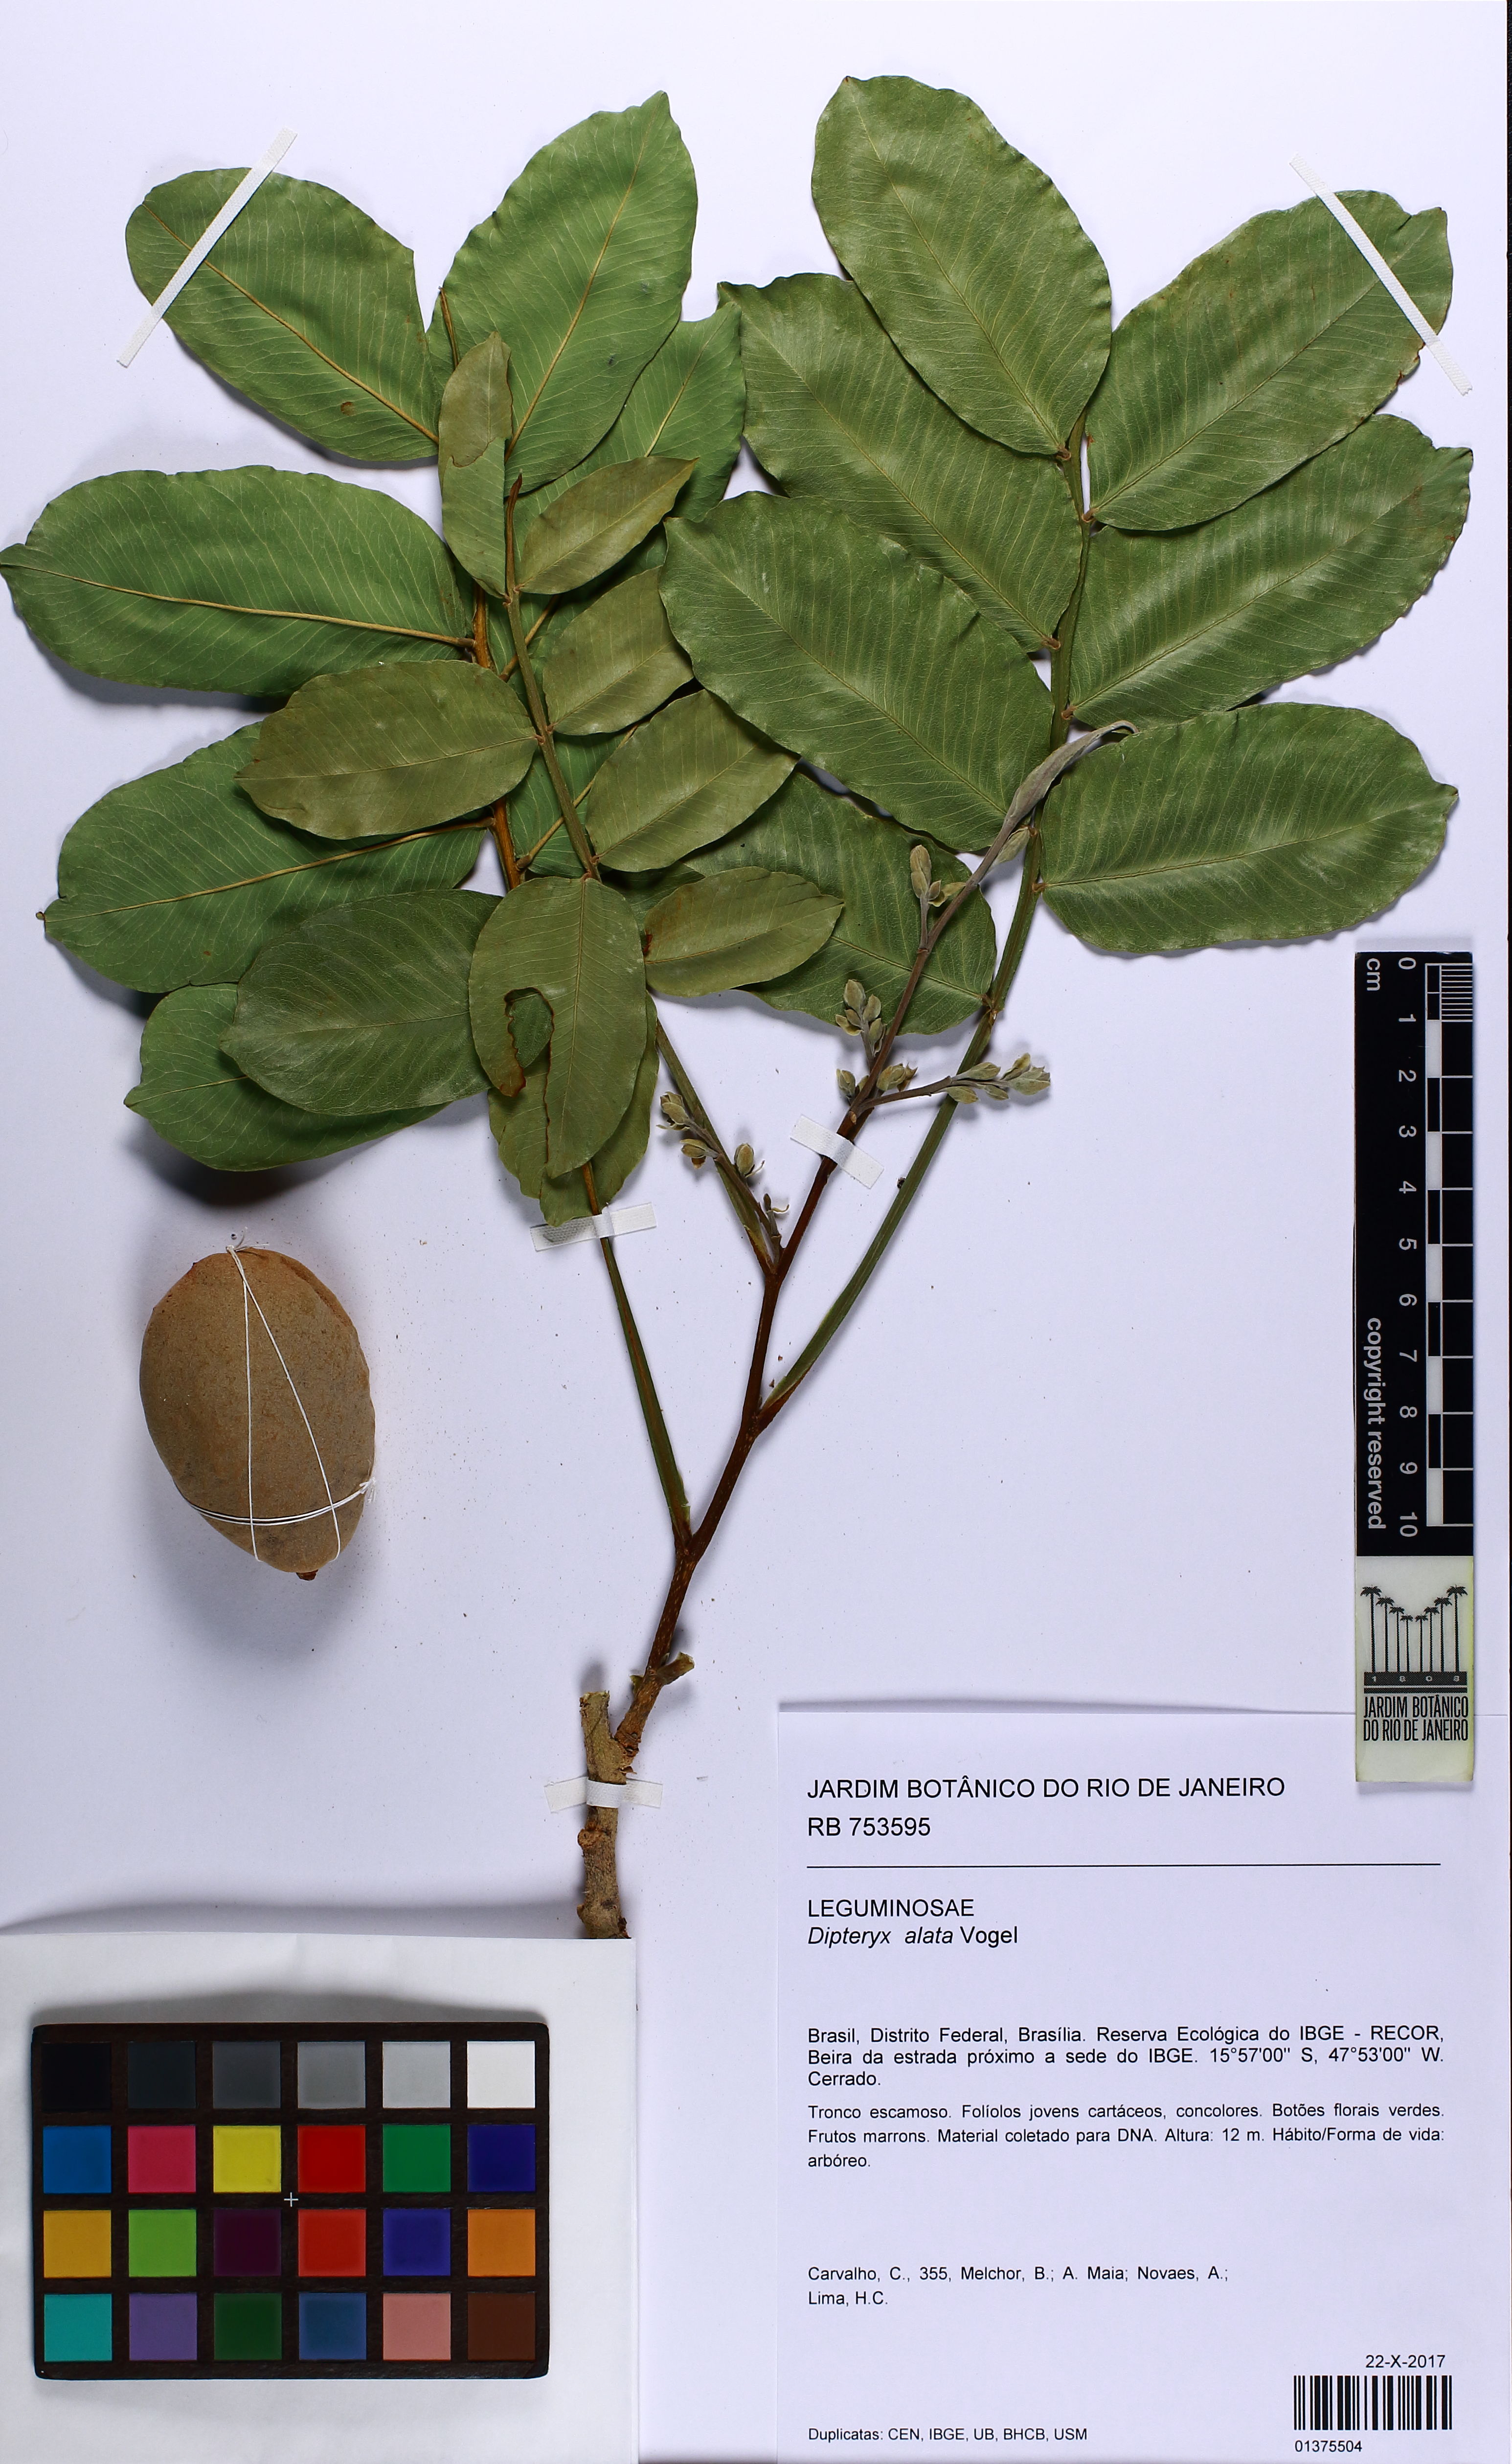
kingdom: Plantae
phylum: Tracheophyta
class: Magnoliopsida
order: Fabales
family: Fabaceae
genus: Dipteryx
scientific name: Dipteryx alata
